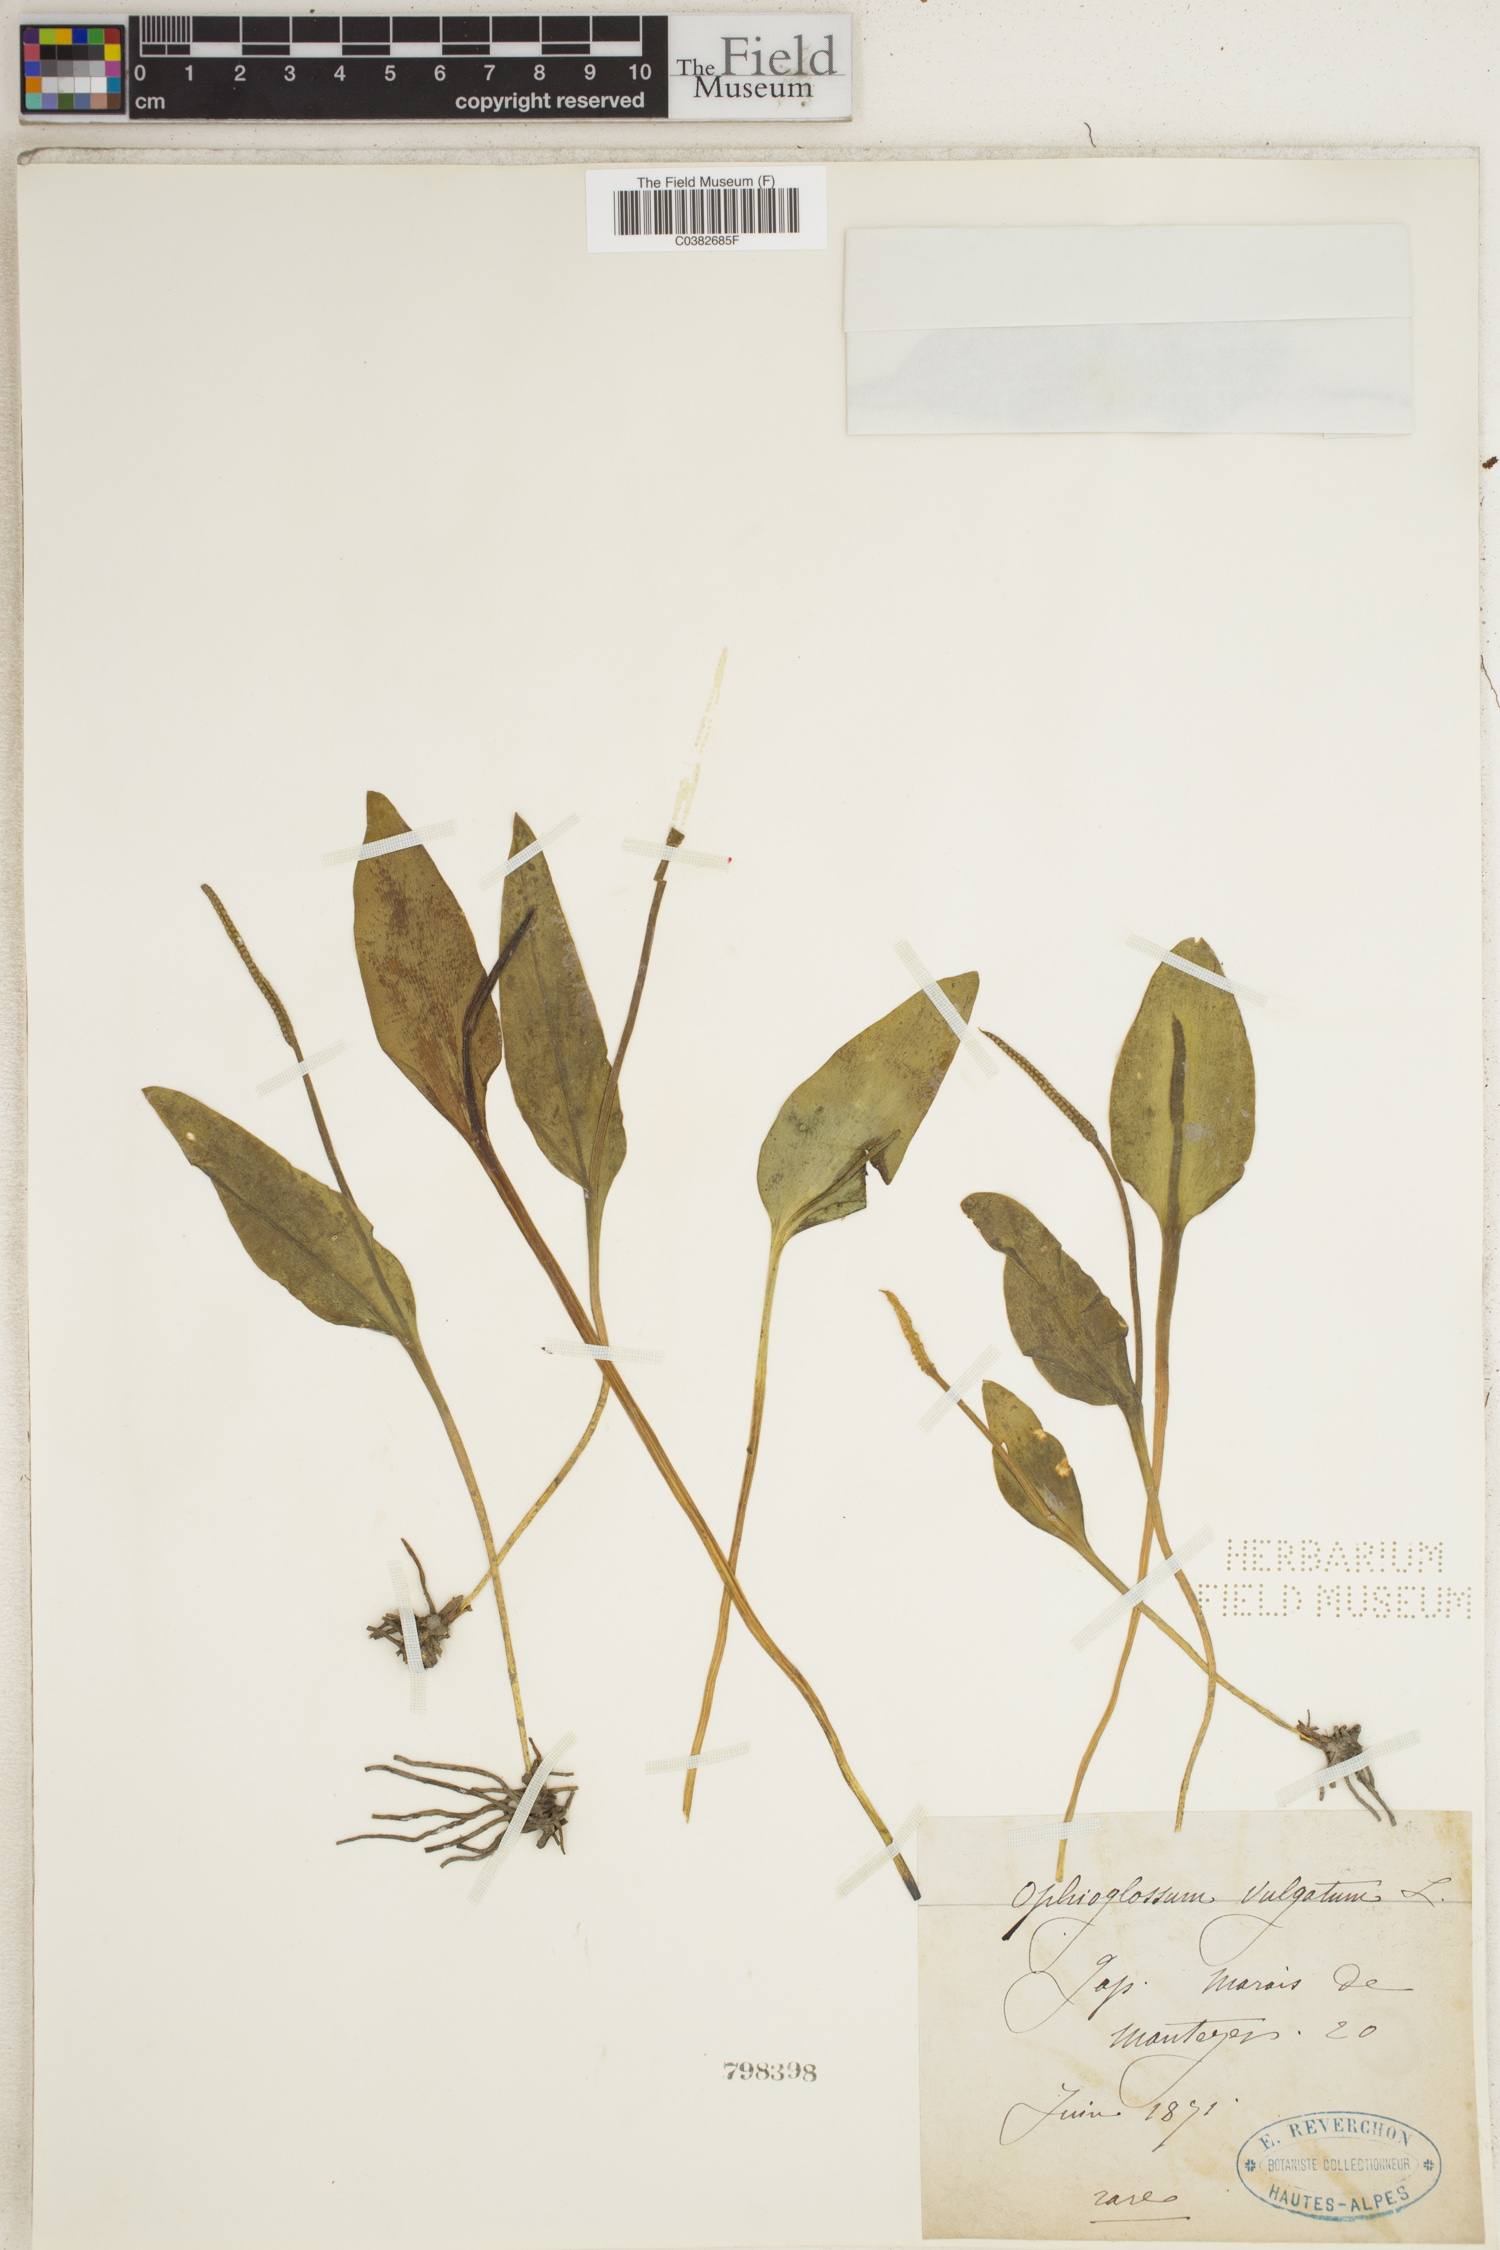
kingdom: Plantae
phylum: Tracheophyta
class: Polypodiopsida
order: Ophioglossales
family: Ophioglossaceae
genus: Ophioglossum
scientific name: Ophioglossum vulgatum
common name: Adder's-tongue
